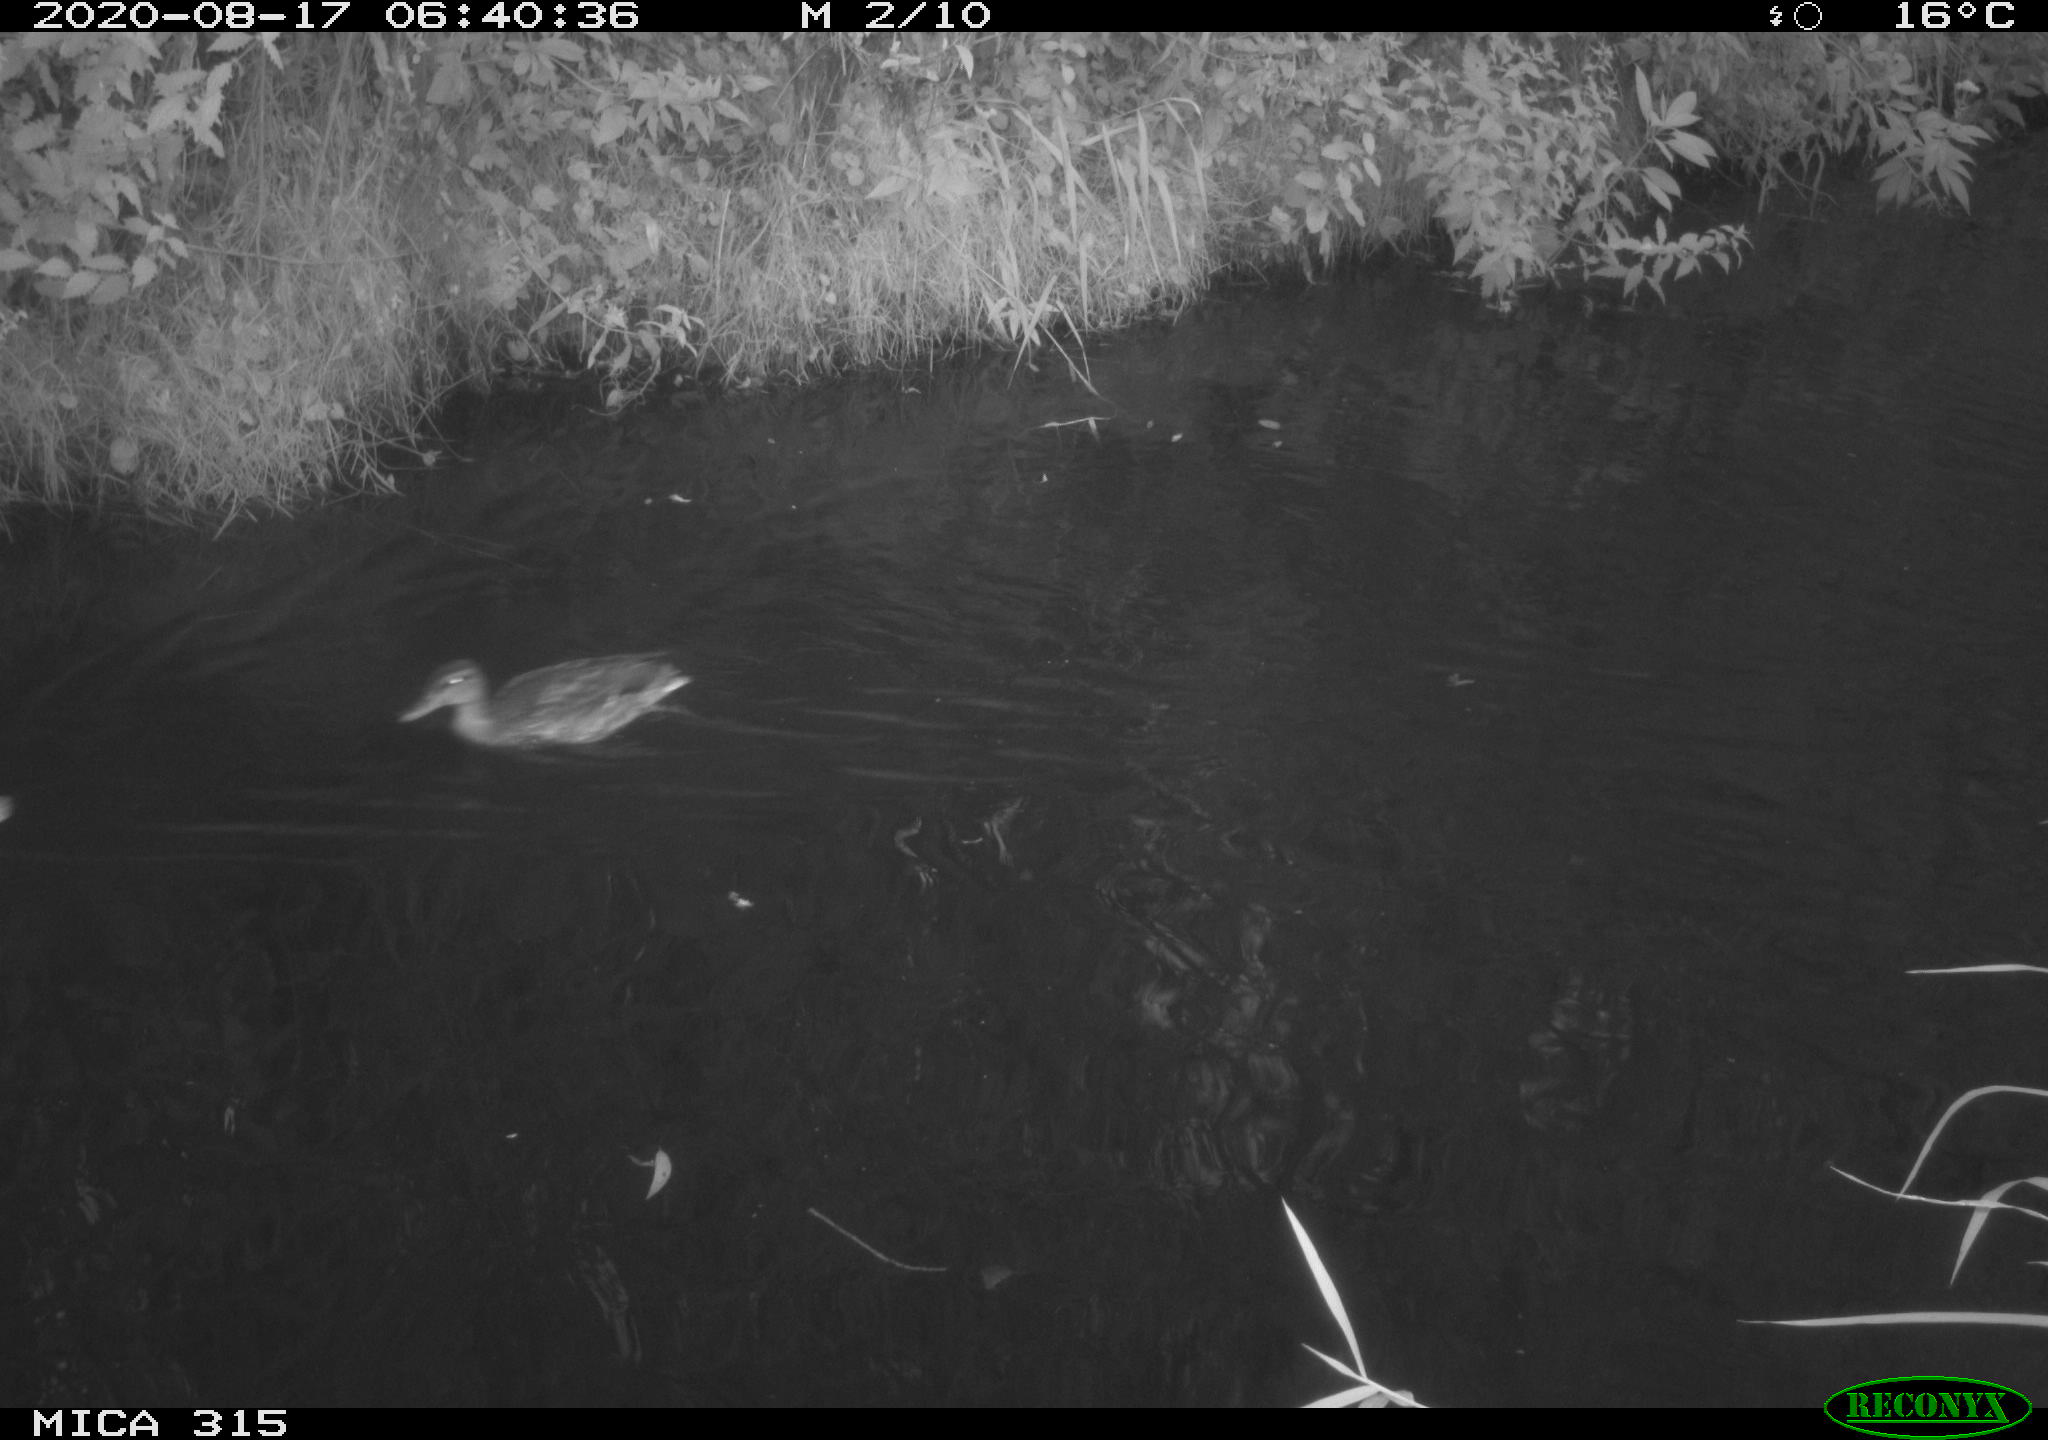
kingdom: Animalia
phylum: Chordata
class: Aves
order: Anseriformes
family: Anatidae
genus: Anas
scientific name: Anas platyrhynchos
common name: Mallard
